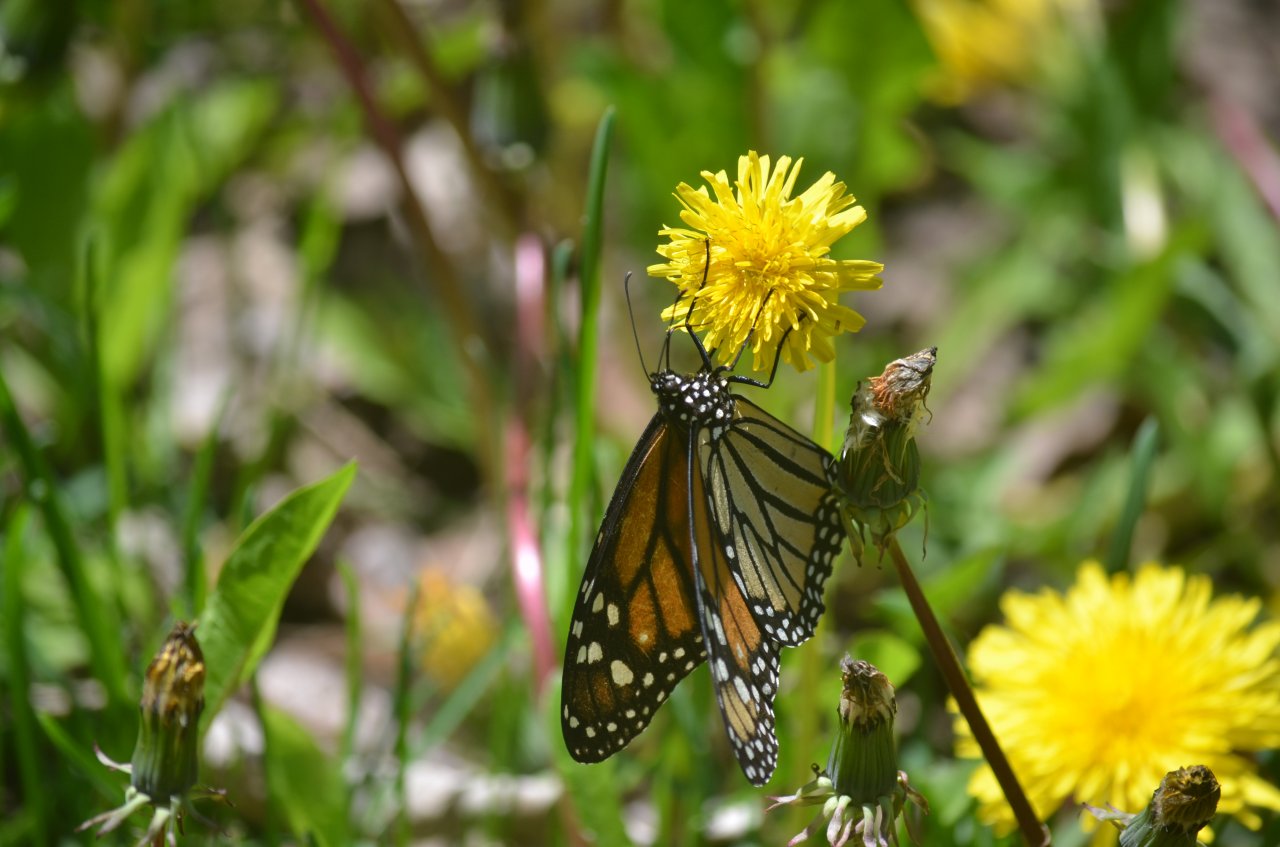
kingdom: Animalia
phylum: Arthropoda
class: Insecta
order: Lepidoptera
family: Nymphalidae
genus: Danaus
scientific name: Danaus plexippus
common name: Monarch
